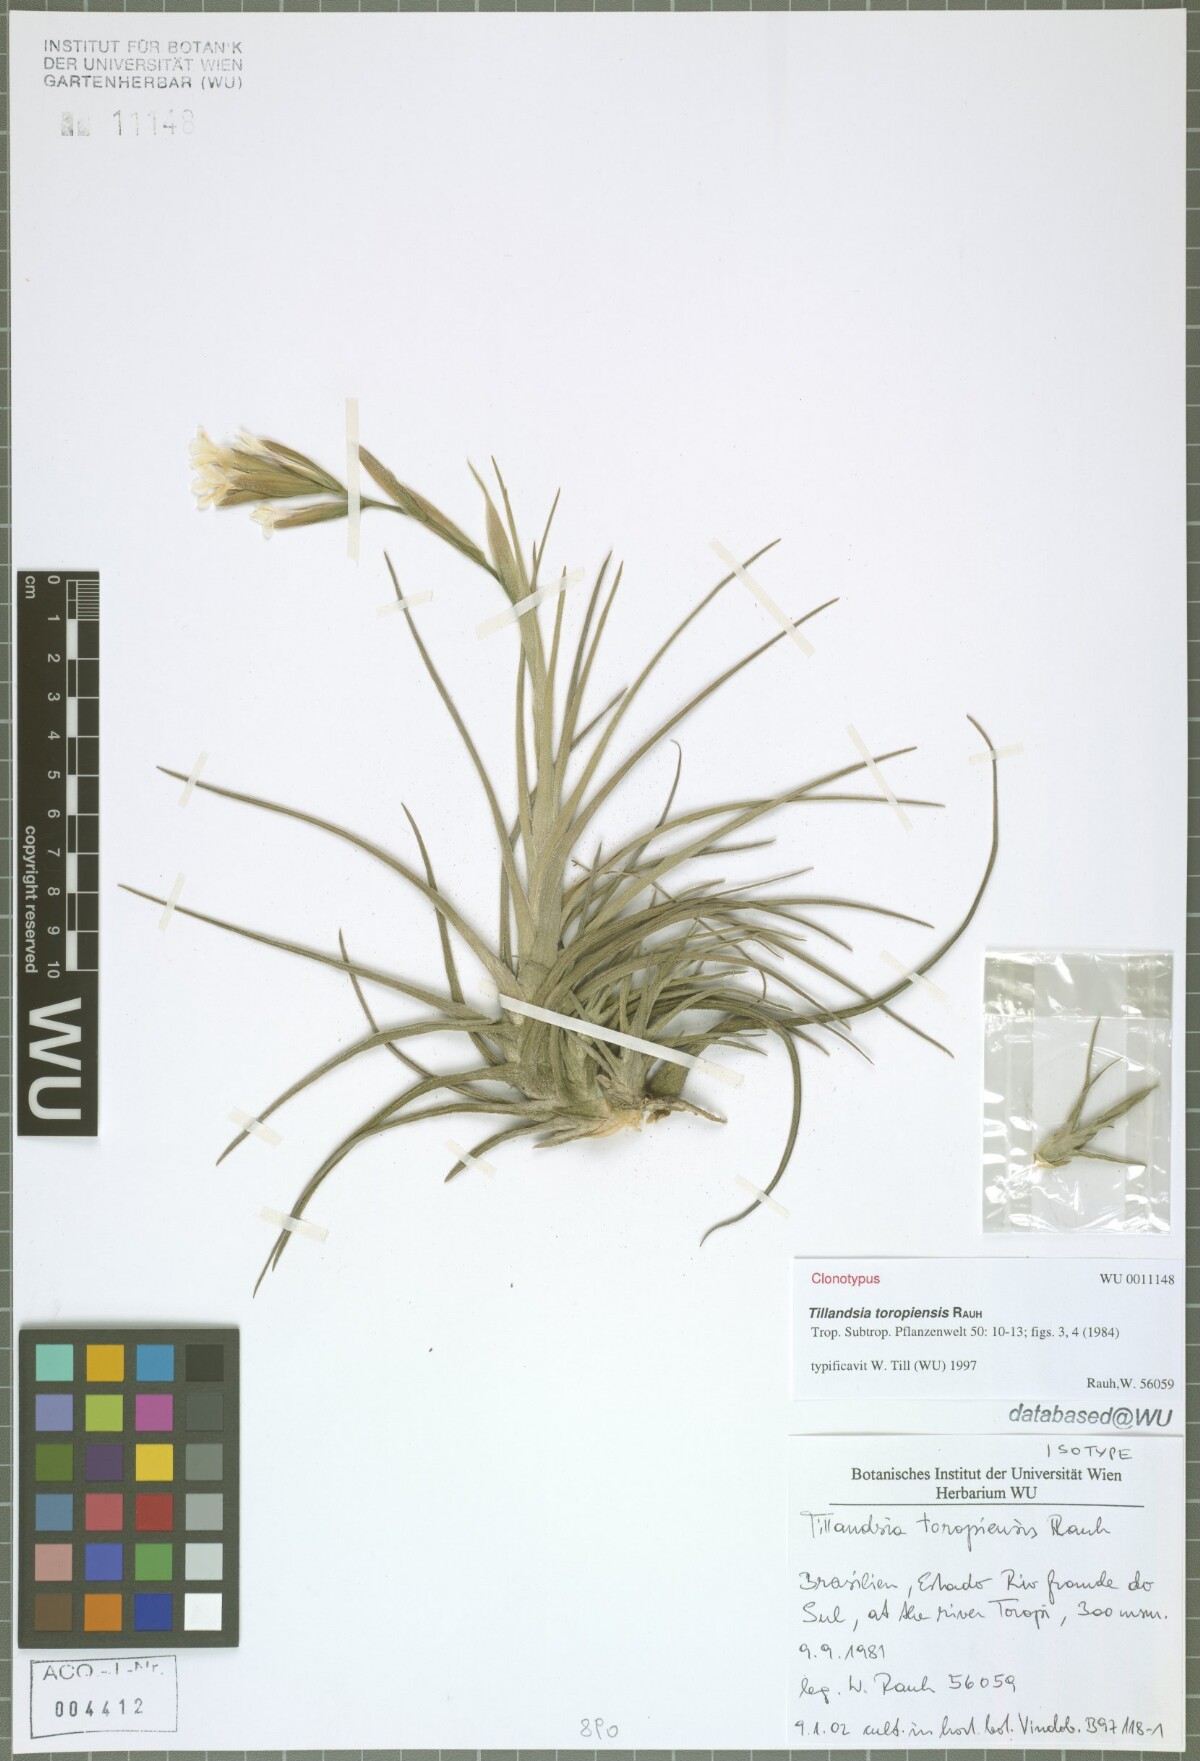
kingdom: Plantae
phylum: Tracheophyta
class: Liliopsida
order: Poales
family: Bromeliaceae
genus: Tillandsia
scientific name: Tillandsia toropiensis
